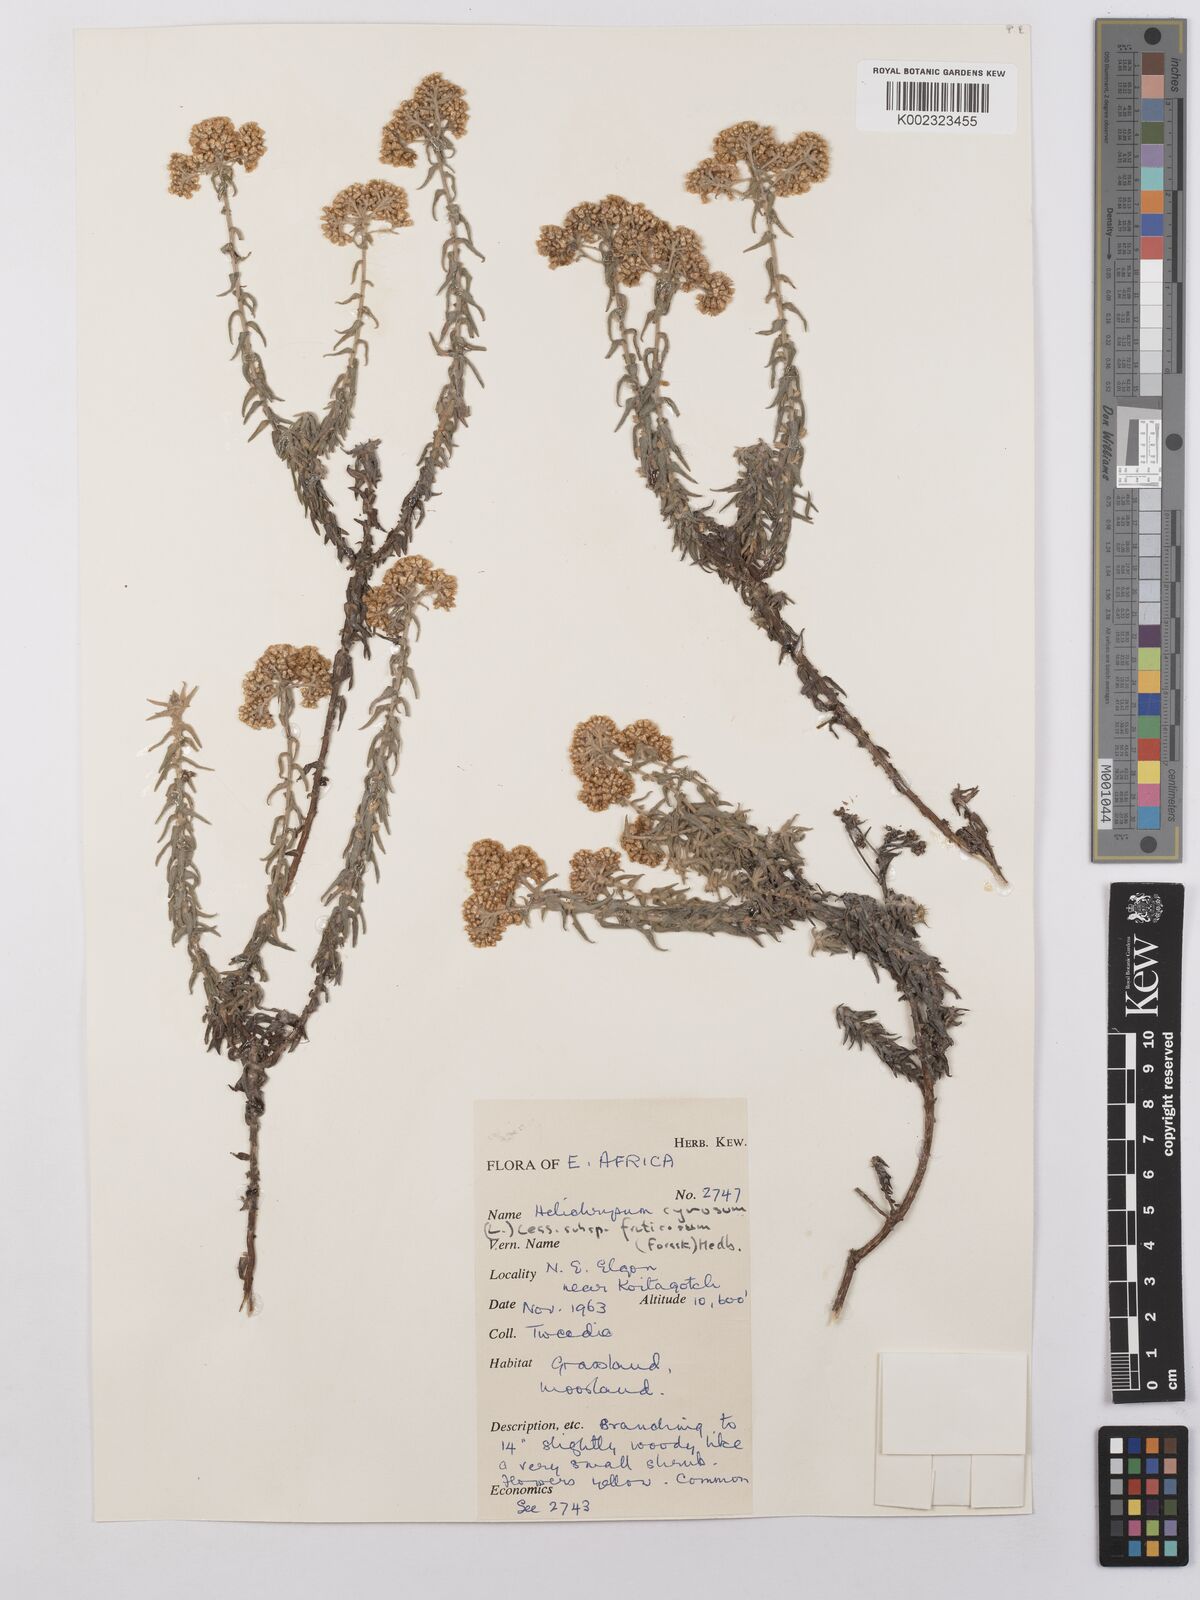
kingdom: Plantae
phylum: Tracheophyta
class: Magnoliopsida
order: Asterales
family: Asteraceae
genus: Helichrysum
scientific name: Helichrysum forskahlii
